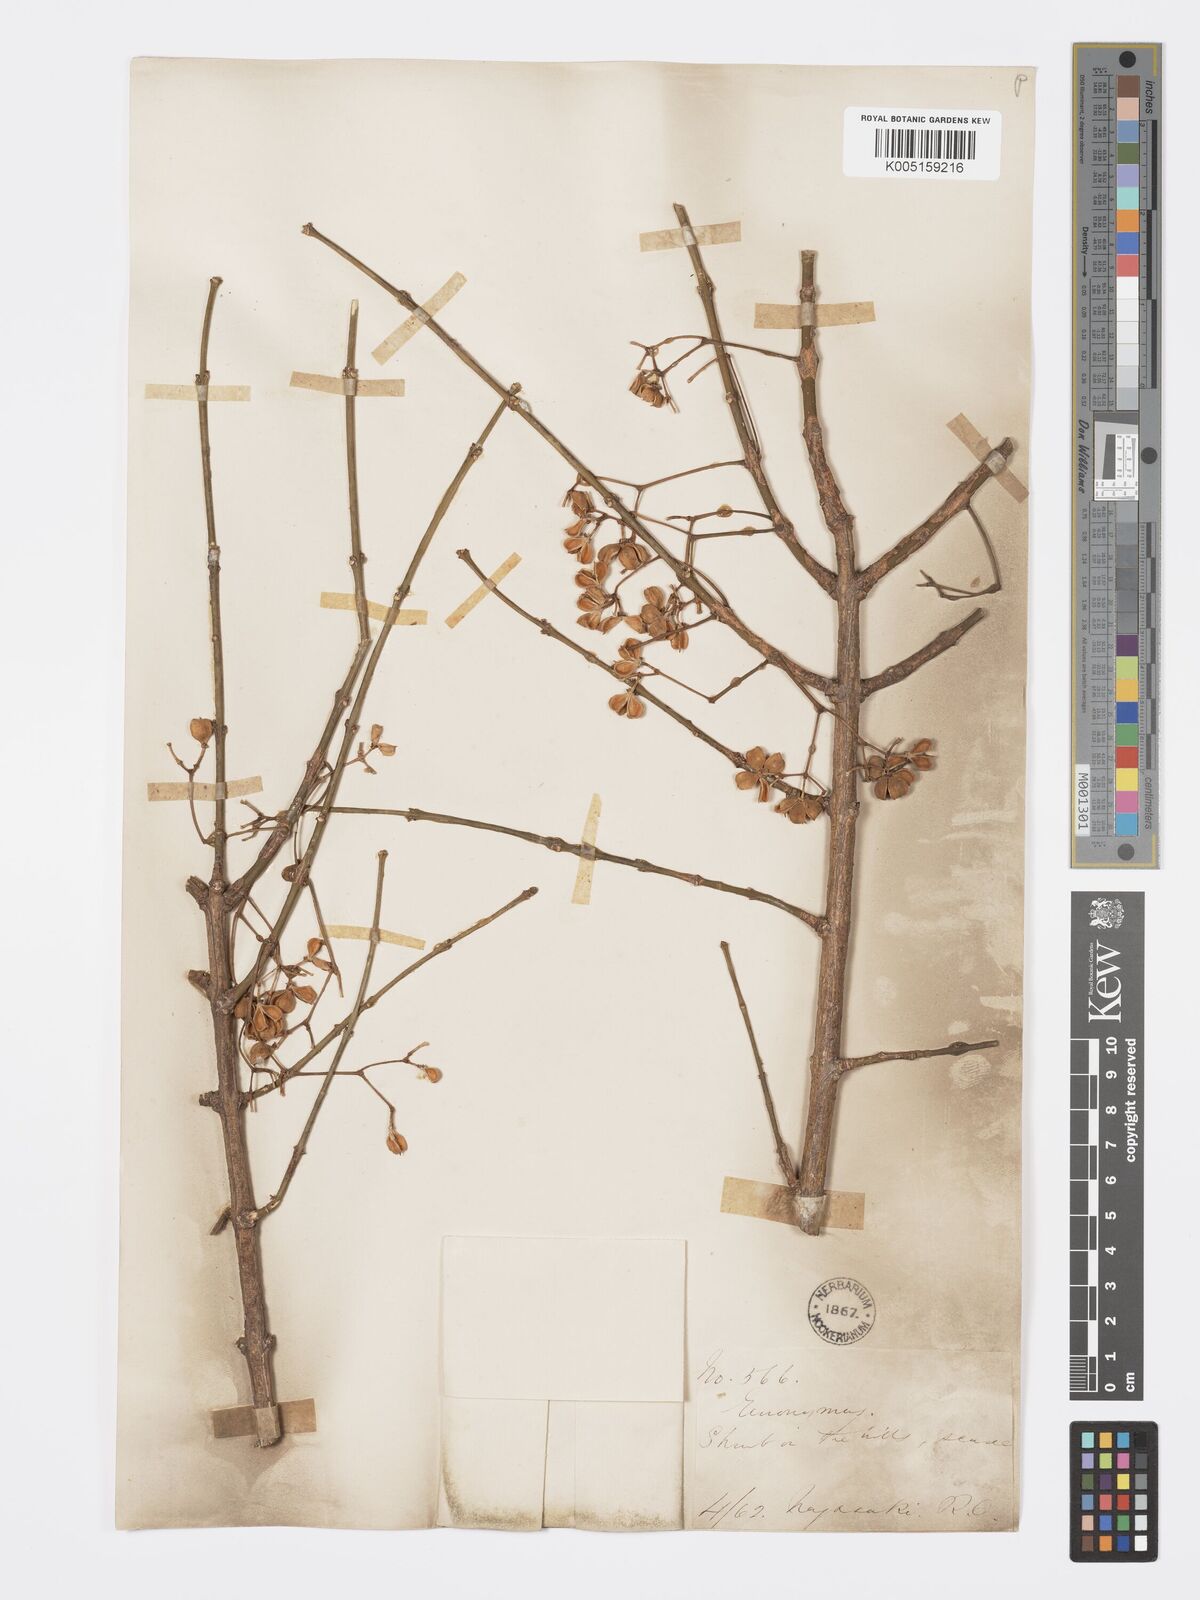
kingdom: Plantae
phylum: Tracheophyta
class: Magnoliopsida
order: Celastrales
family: Celastraceae
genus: Euonymus
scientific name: Euonymus hamiltonianus
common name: Hamilton's spindletree
